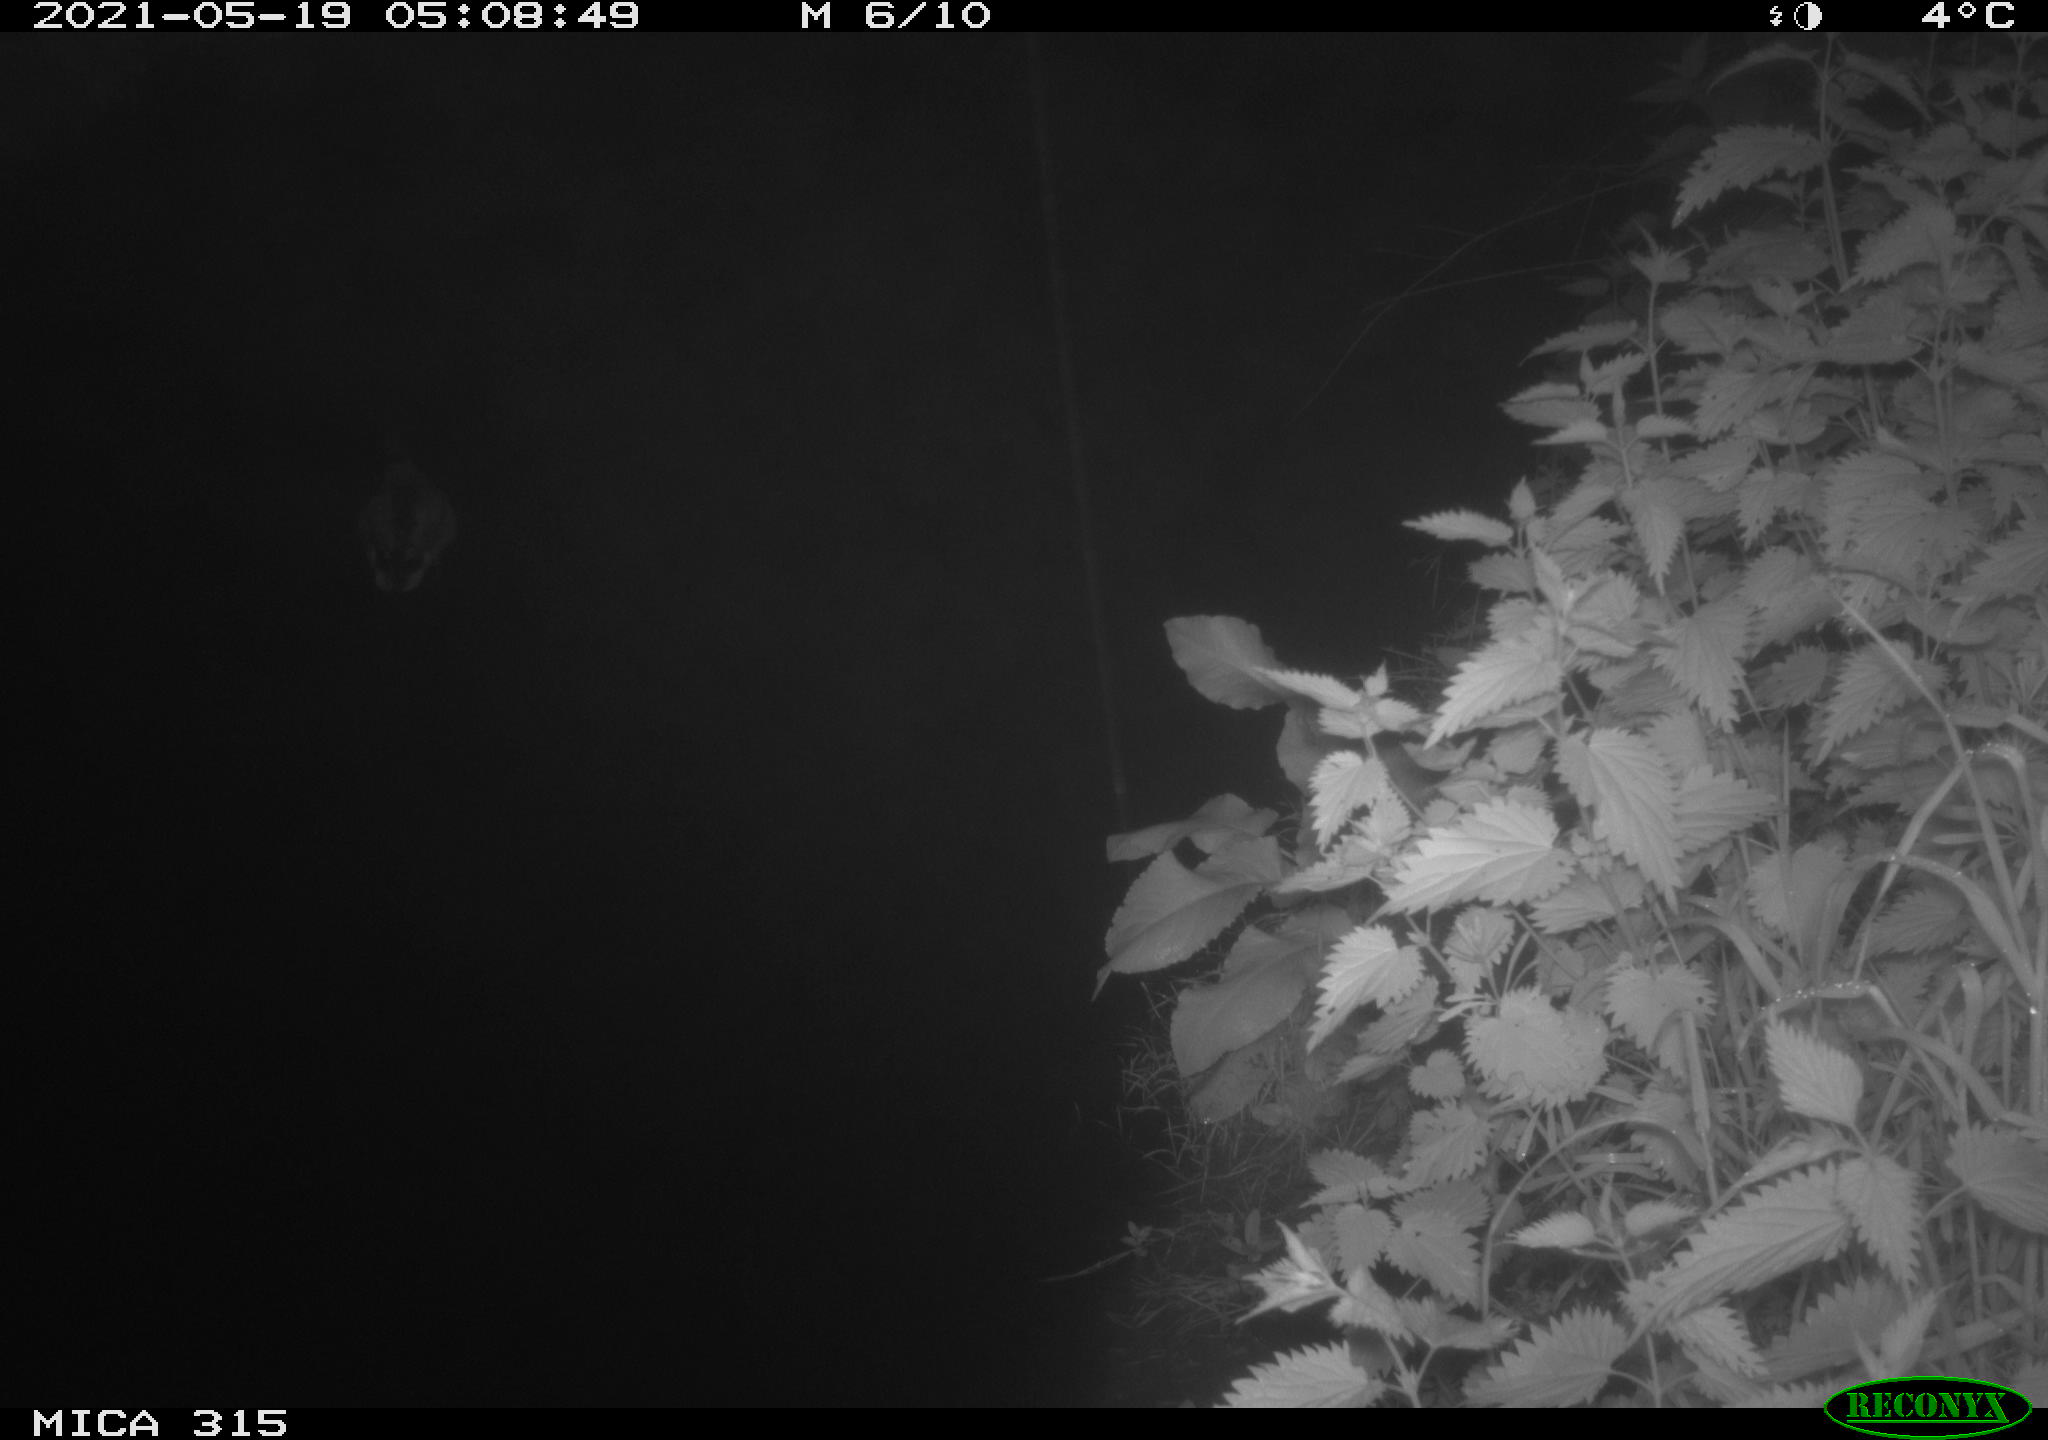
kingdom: Animalia
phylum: Chordata
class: Aves
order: Anseriformes
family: Anatidae
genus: Anas
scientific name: Anas
